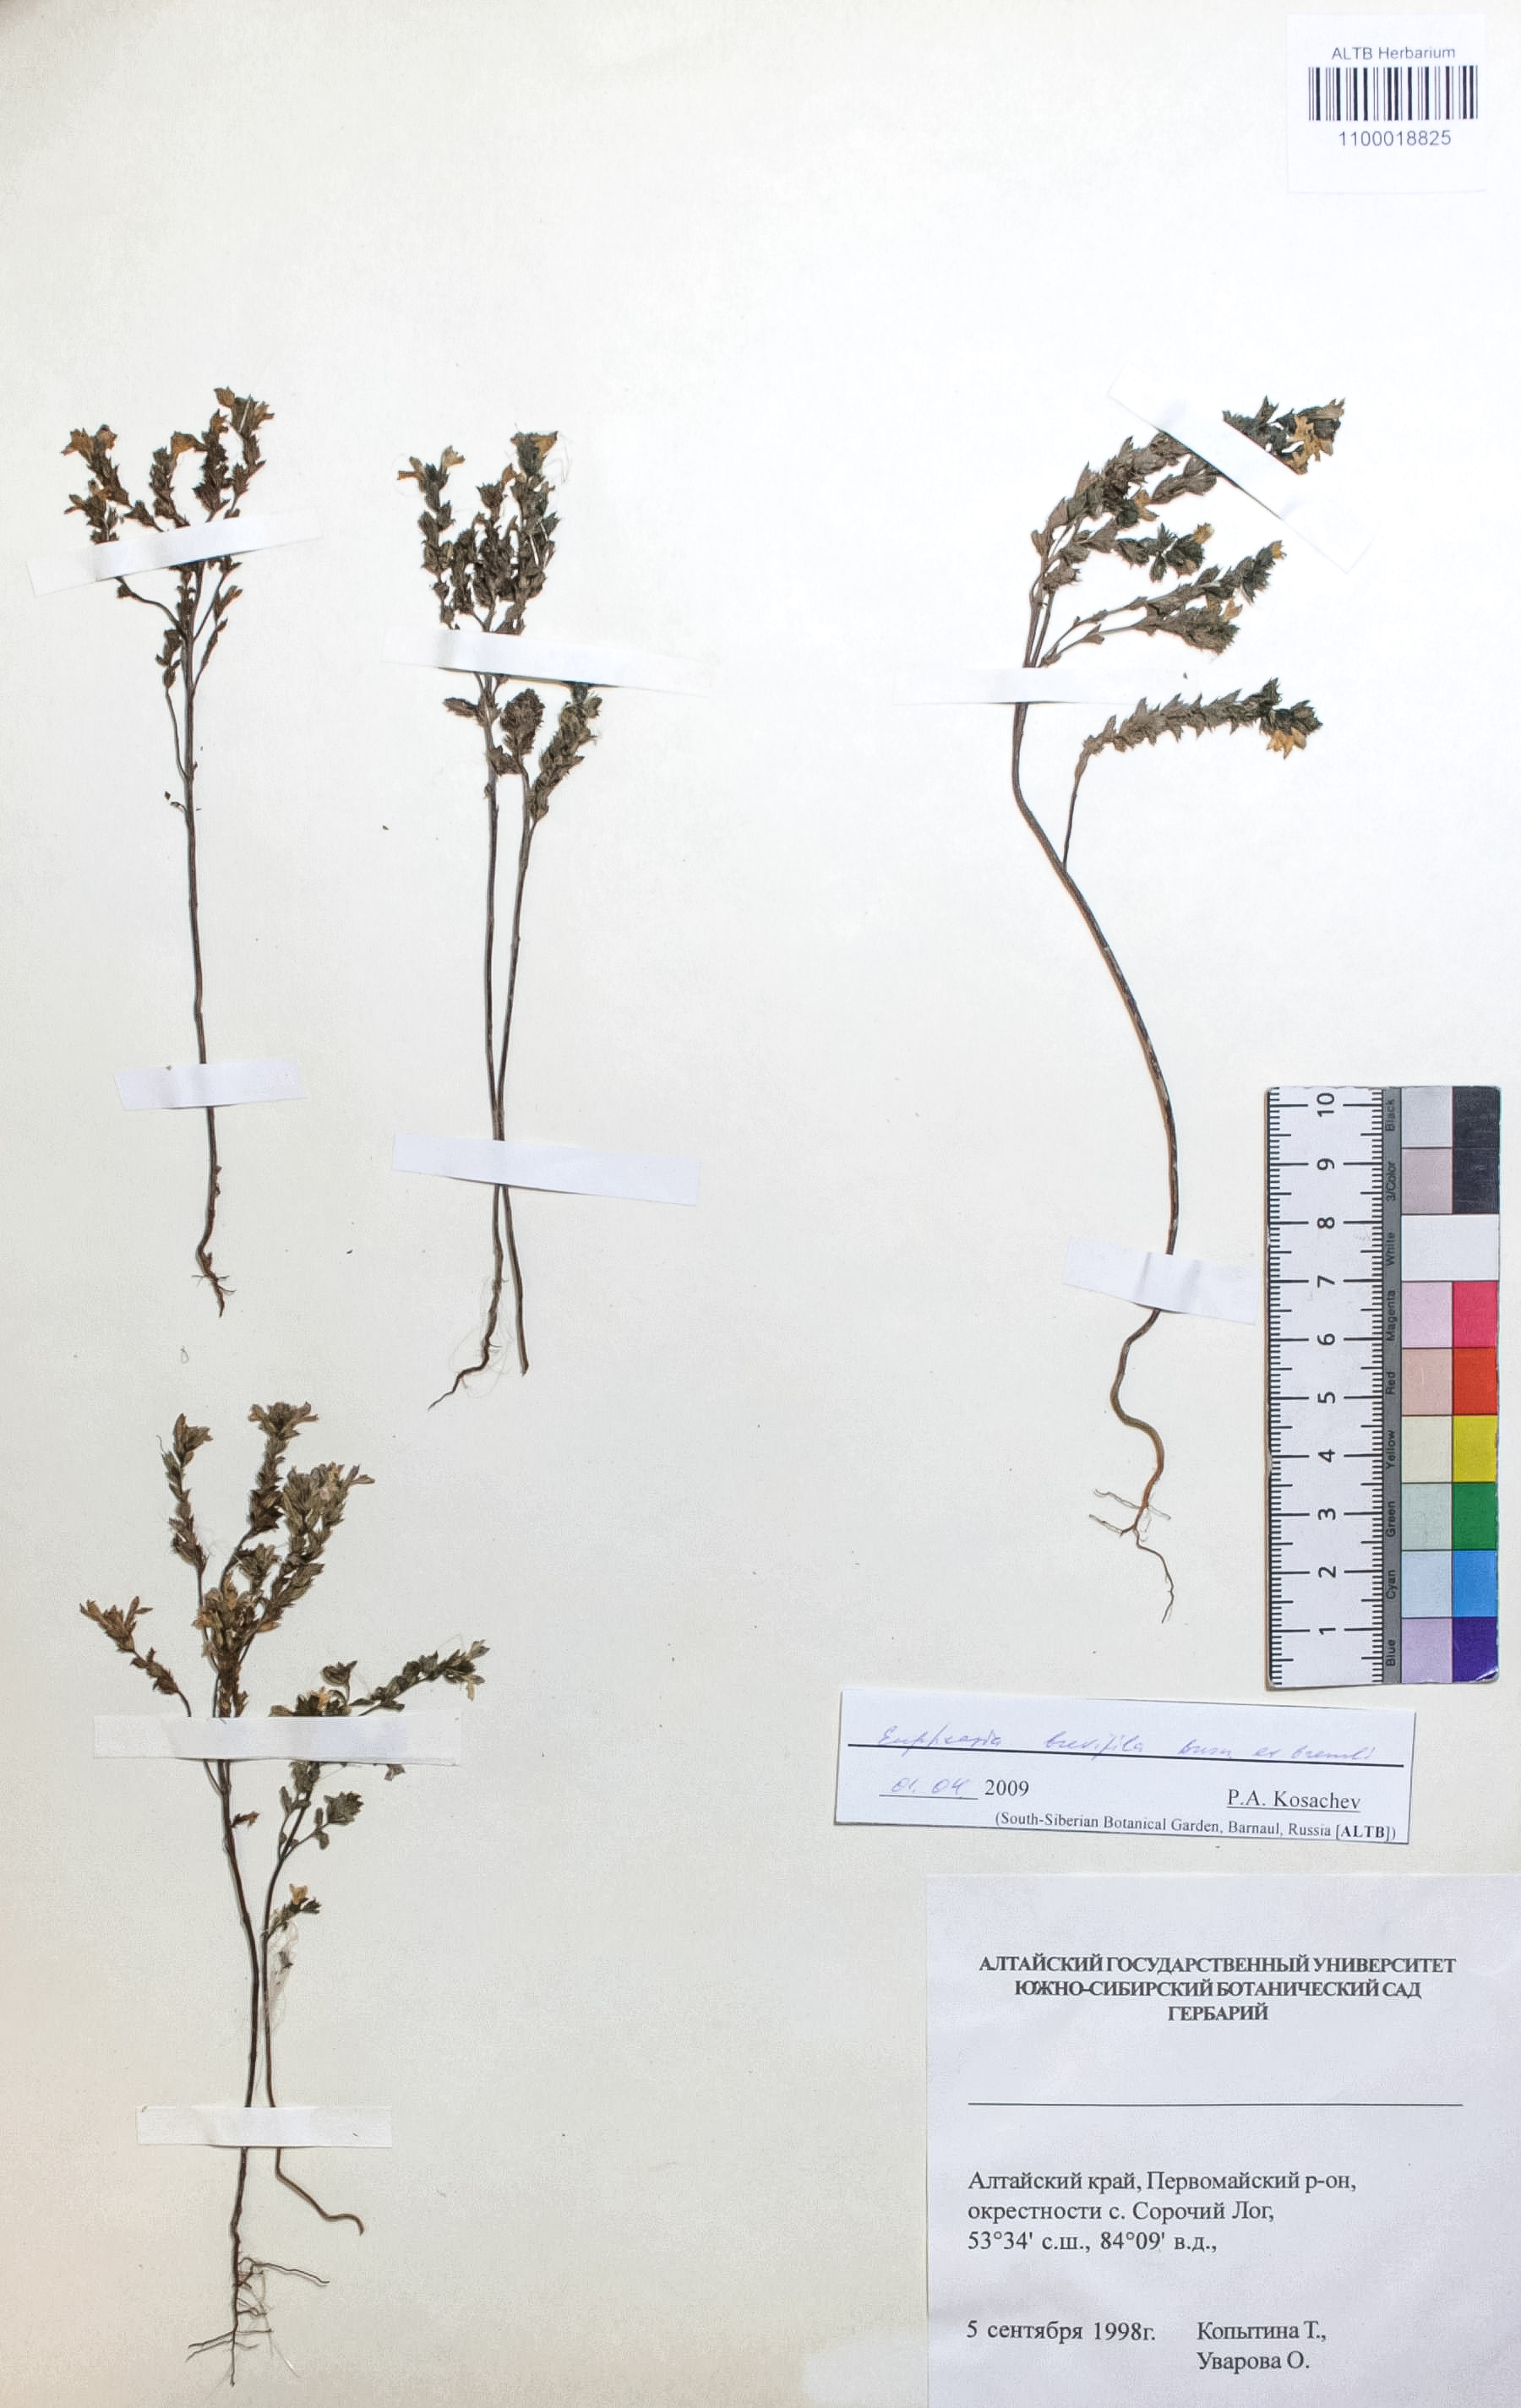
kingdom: Plantae
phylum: Tracheophyta
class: Magnoliopsida
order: Lamiales
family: Orobanchaceae
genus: Euphrasia
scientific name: Euphrasia vernalis
